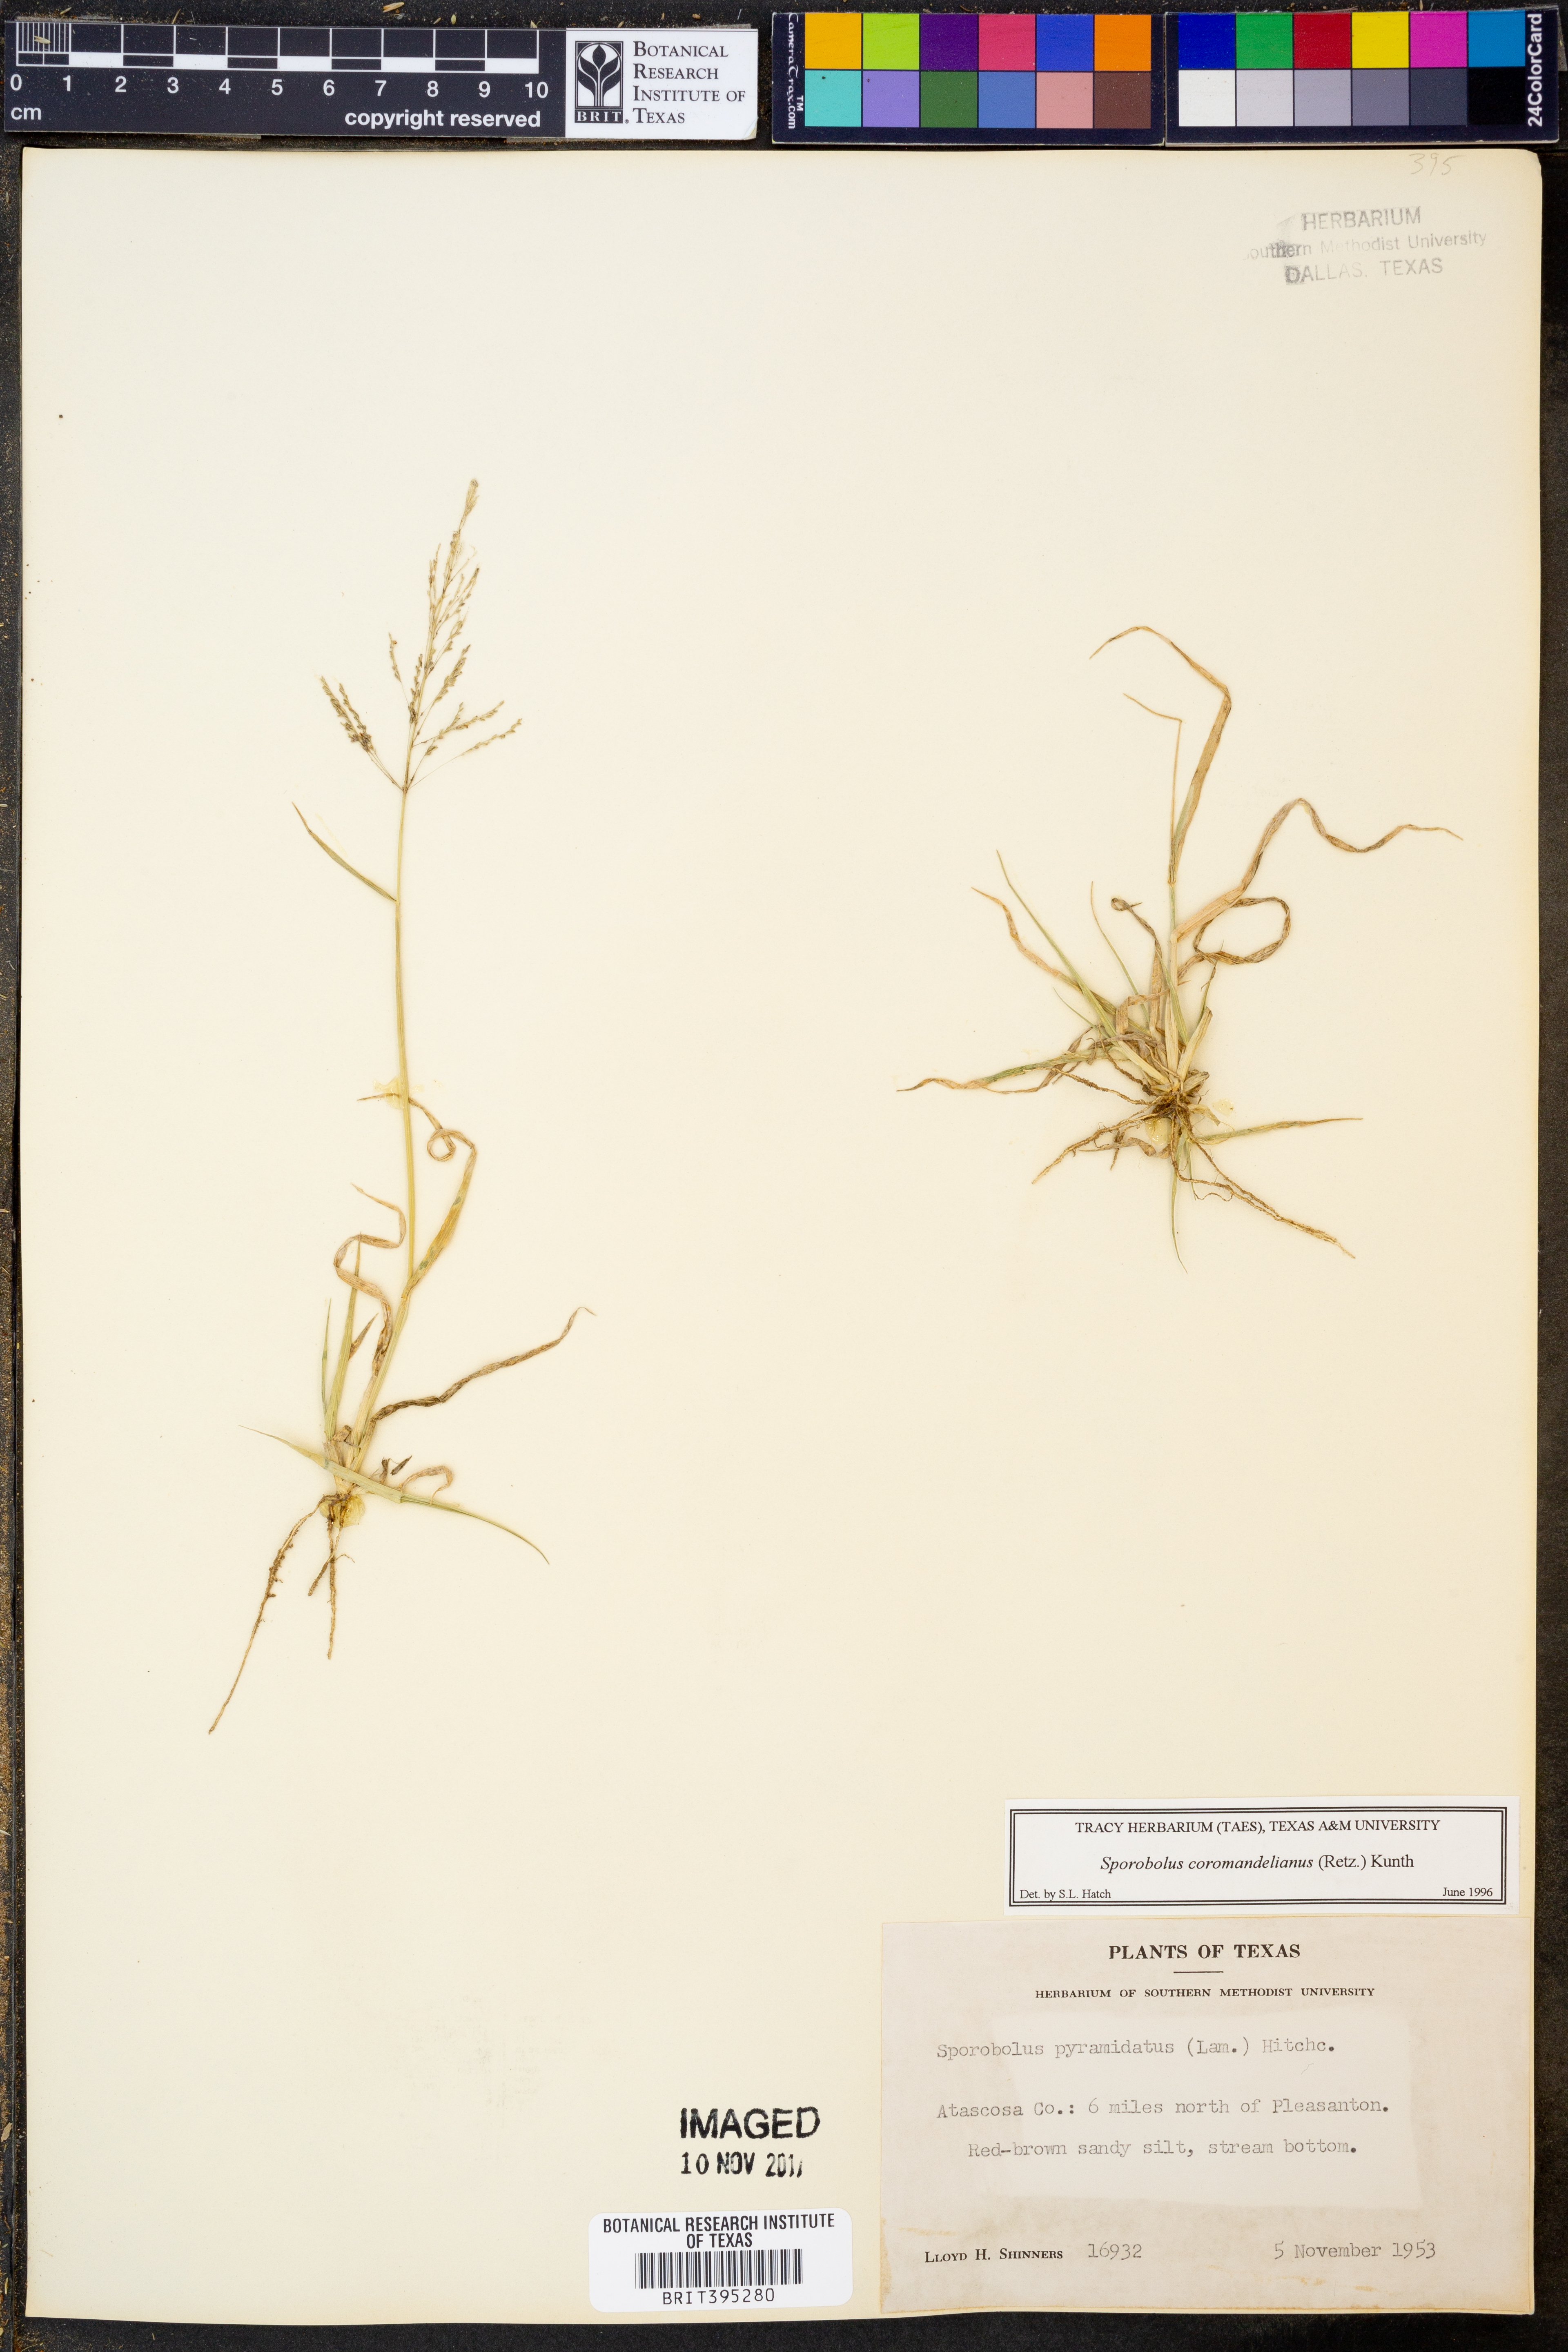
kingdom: Plantae
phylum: Tracheophyta
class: Liliopsida
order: Poales
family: Poaceae
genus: Sporobolus
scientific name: Sporobolus coromandelianus
